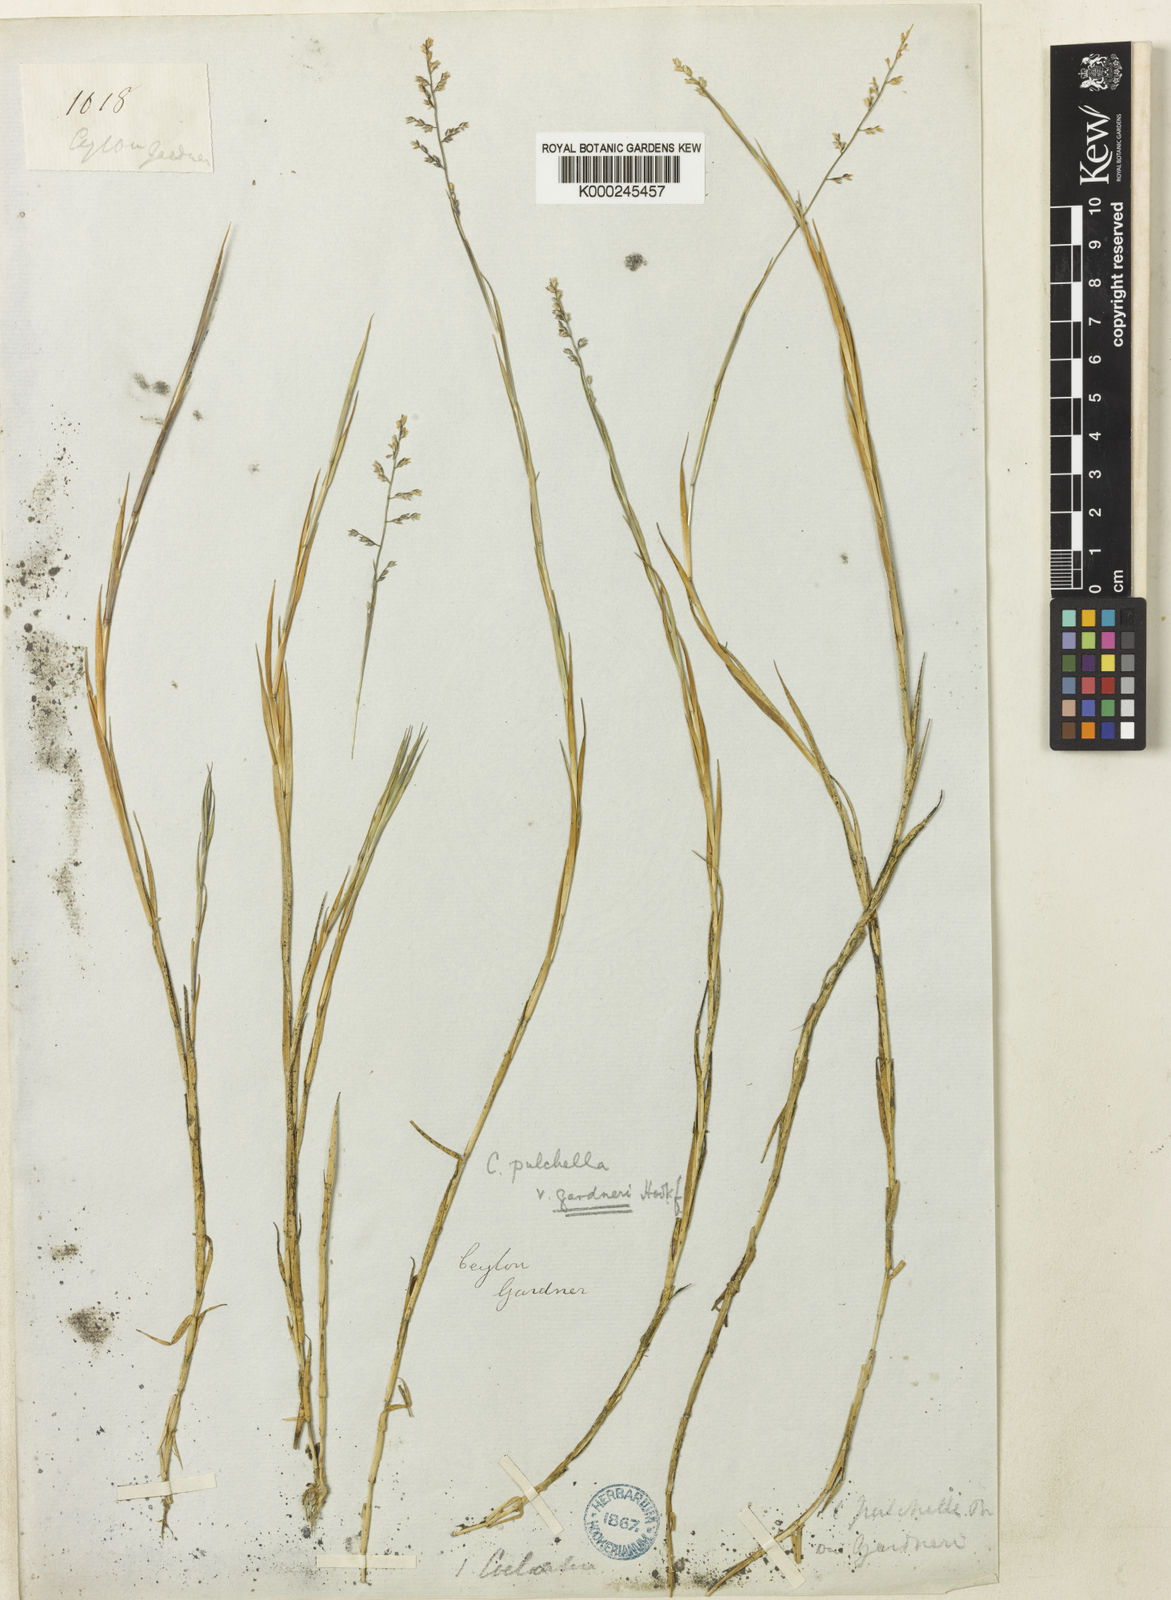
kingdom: Plantae
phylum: Tracheophyta
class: Liliopsida
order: Poales
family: Poaceae
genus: Coelachne
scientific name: Coelachne simpliciuscula
